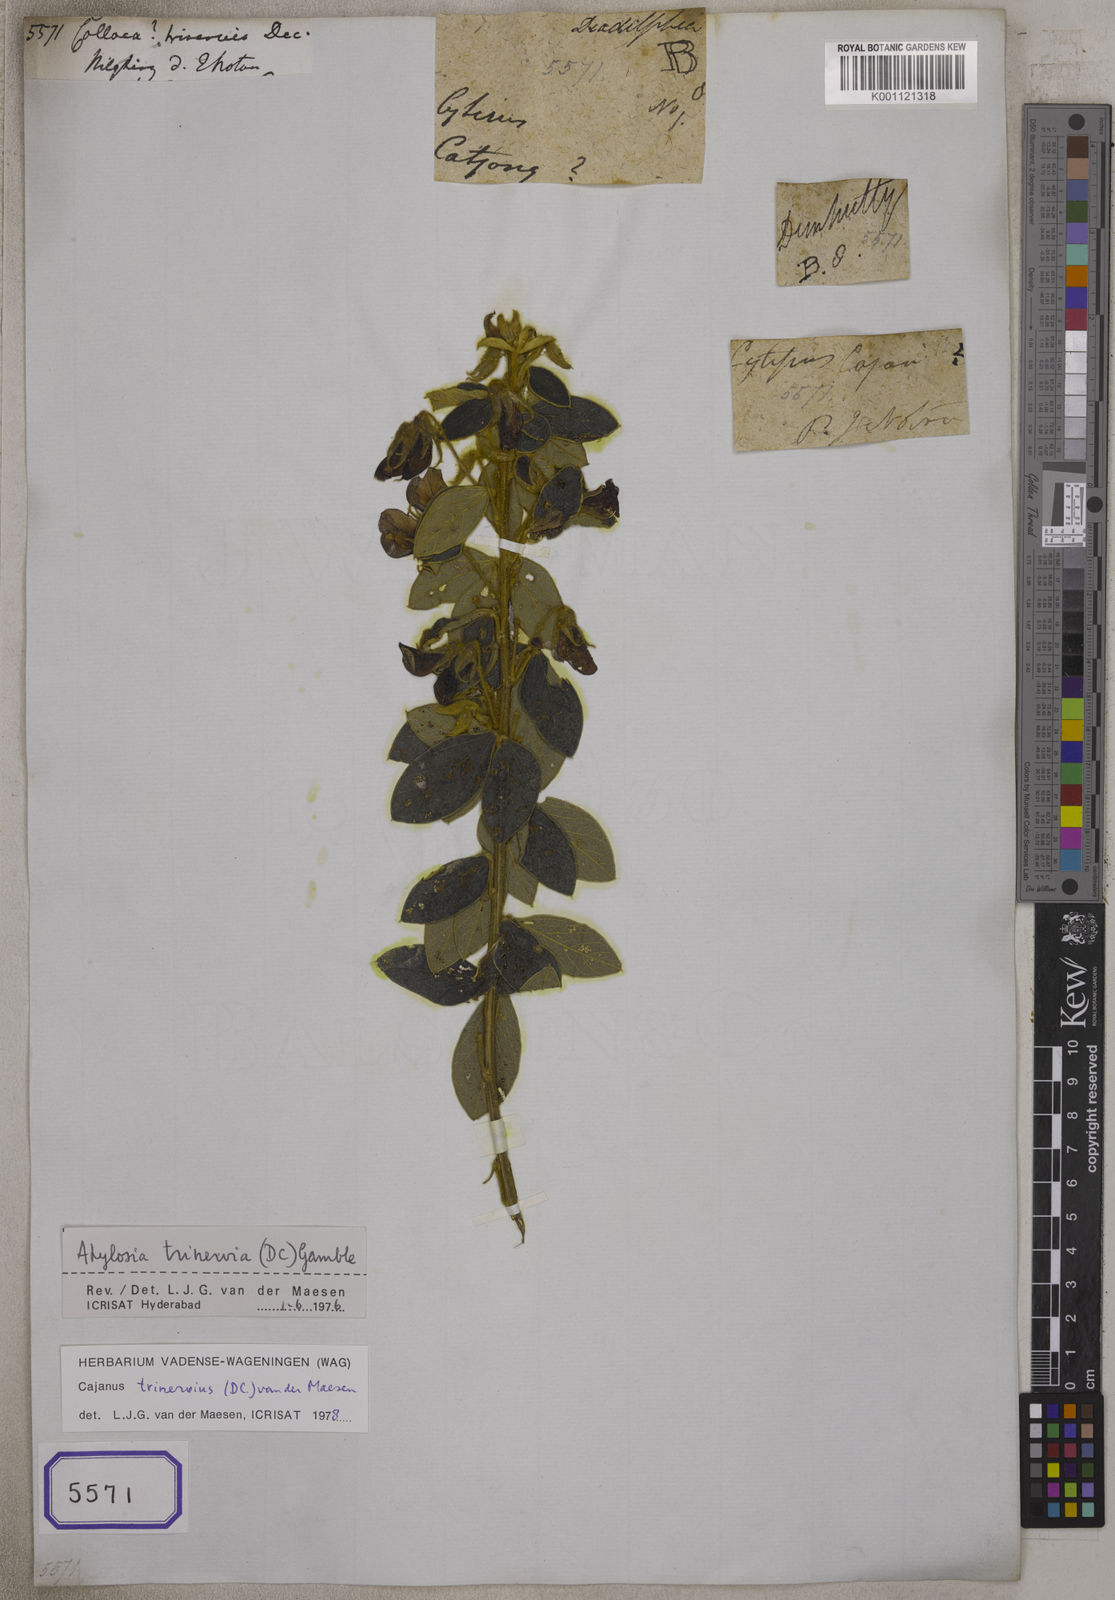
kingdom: Plantae
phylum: Tracheophyta
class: Magnoliopsida
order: Fabales
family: Fabaceae
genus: Cajanus
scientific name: Cajanus trinervius
